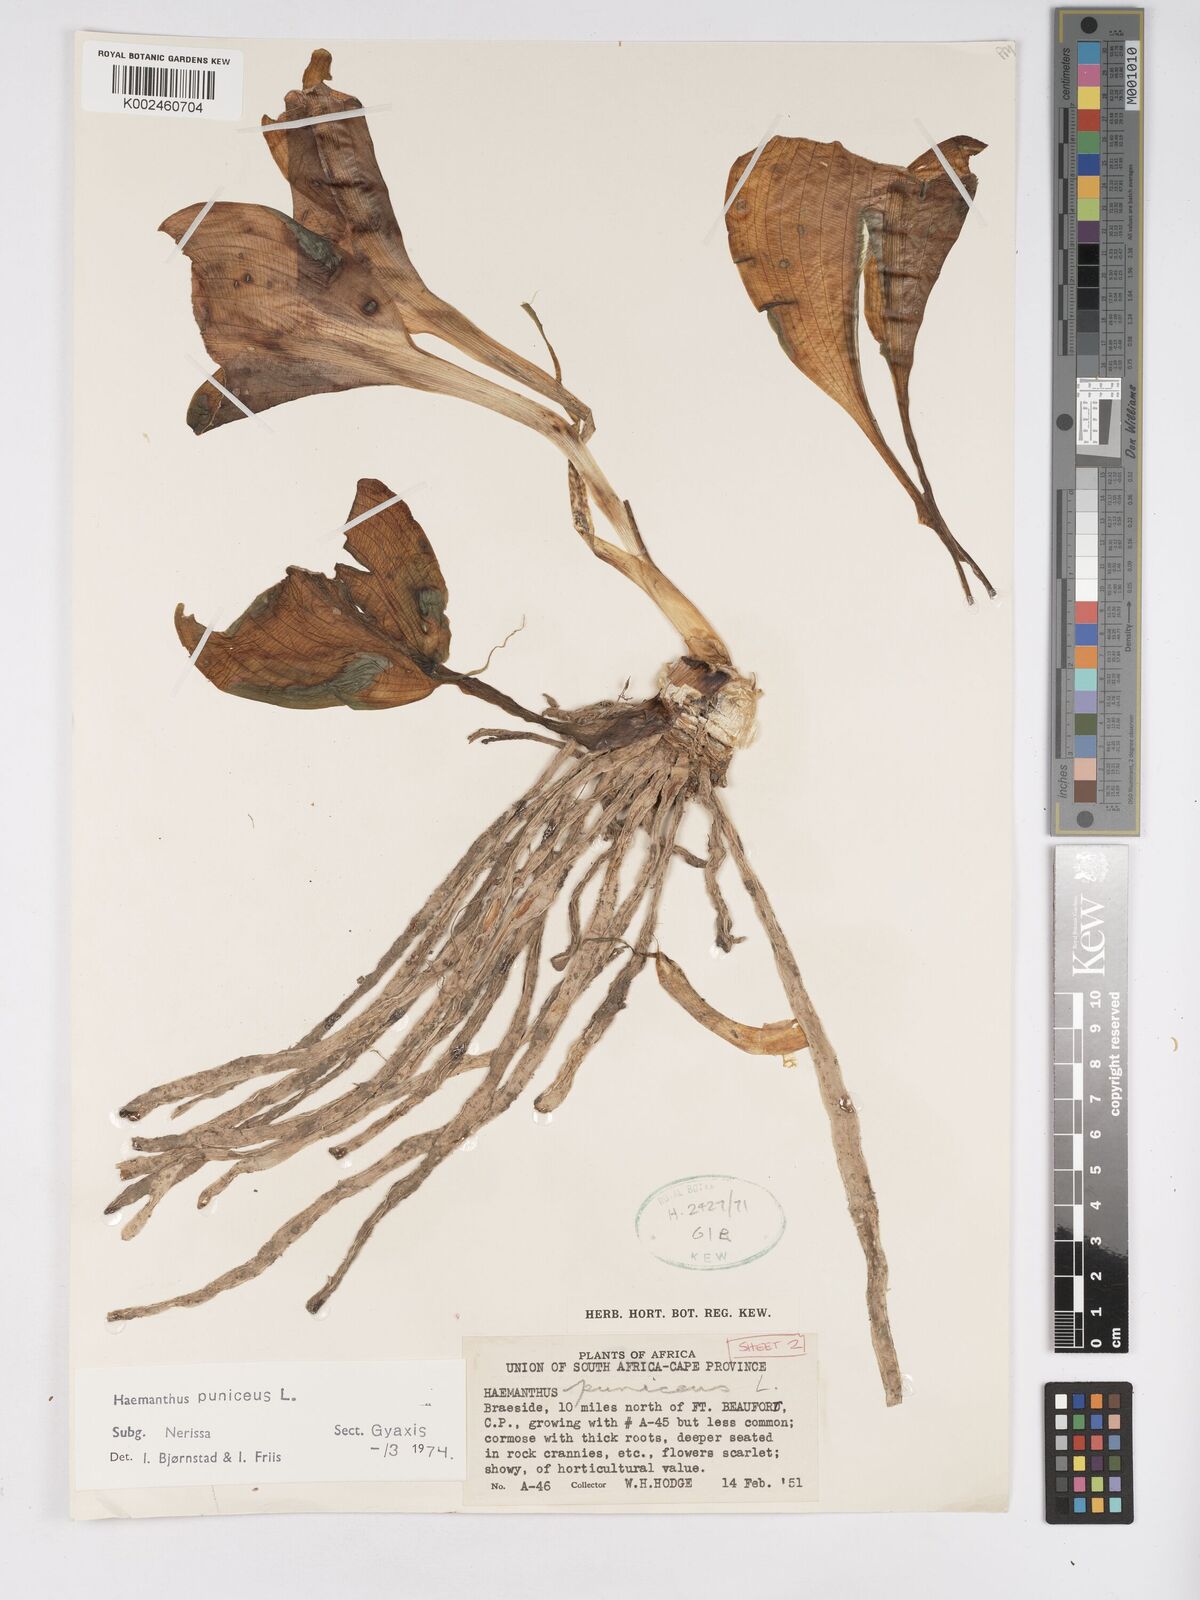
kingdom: Plantae
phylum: Tracheophyta
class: Liliopsida
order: Asparagales
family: Amaryllidaceae
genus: Scadoxus
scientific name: Scadoxus puniceus
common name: Royal-paintbrush
